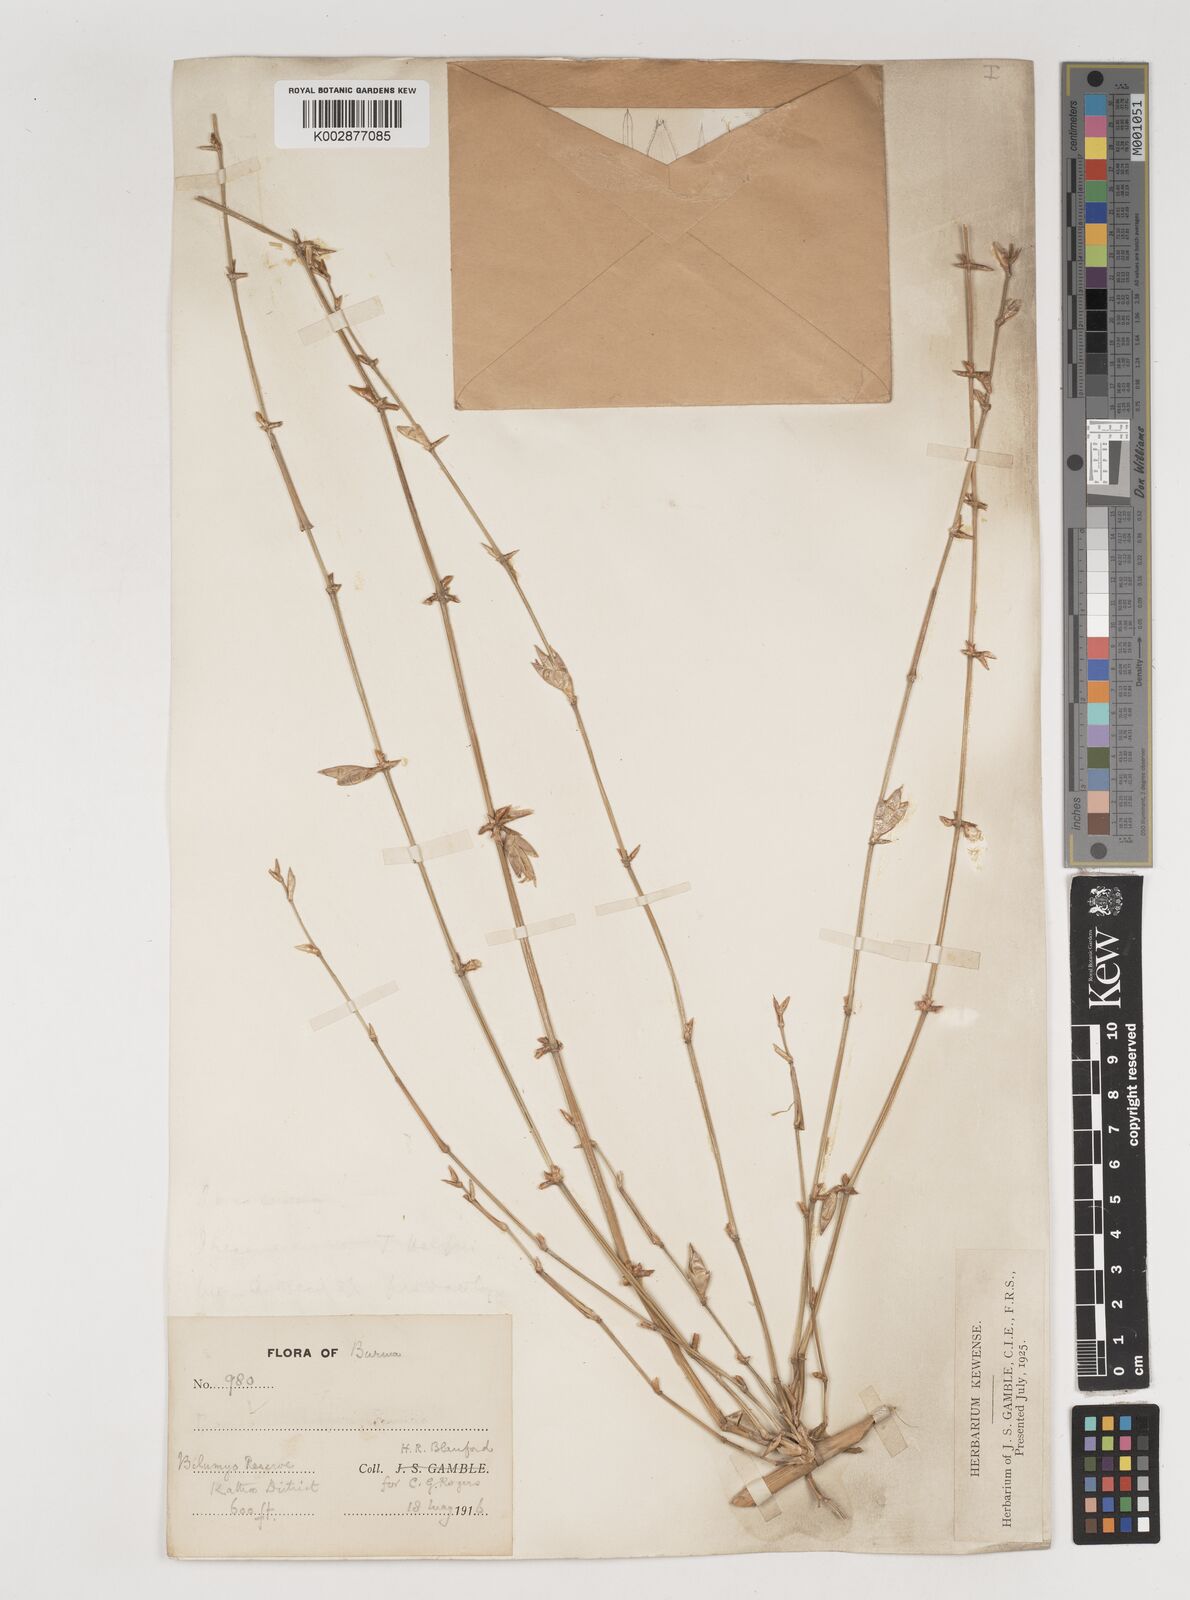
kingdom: Plantae
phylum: Tracheophyta
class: Liliopsida
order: Poales
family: Poaceae
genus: Bambusa
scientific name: Bambusa
